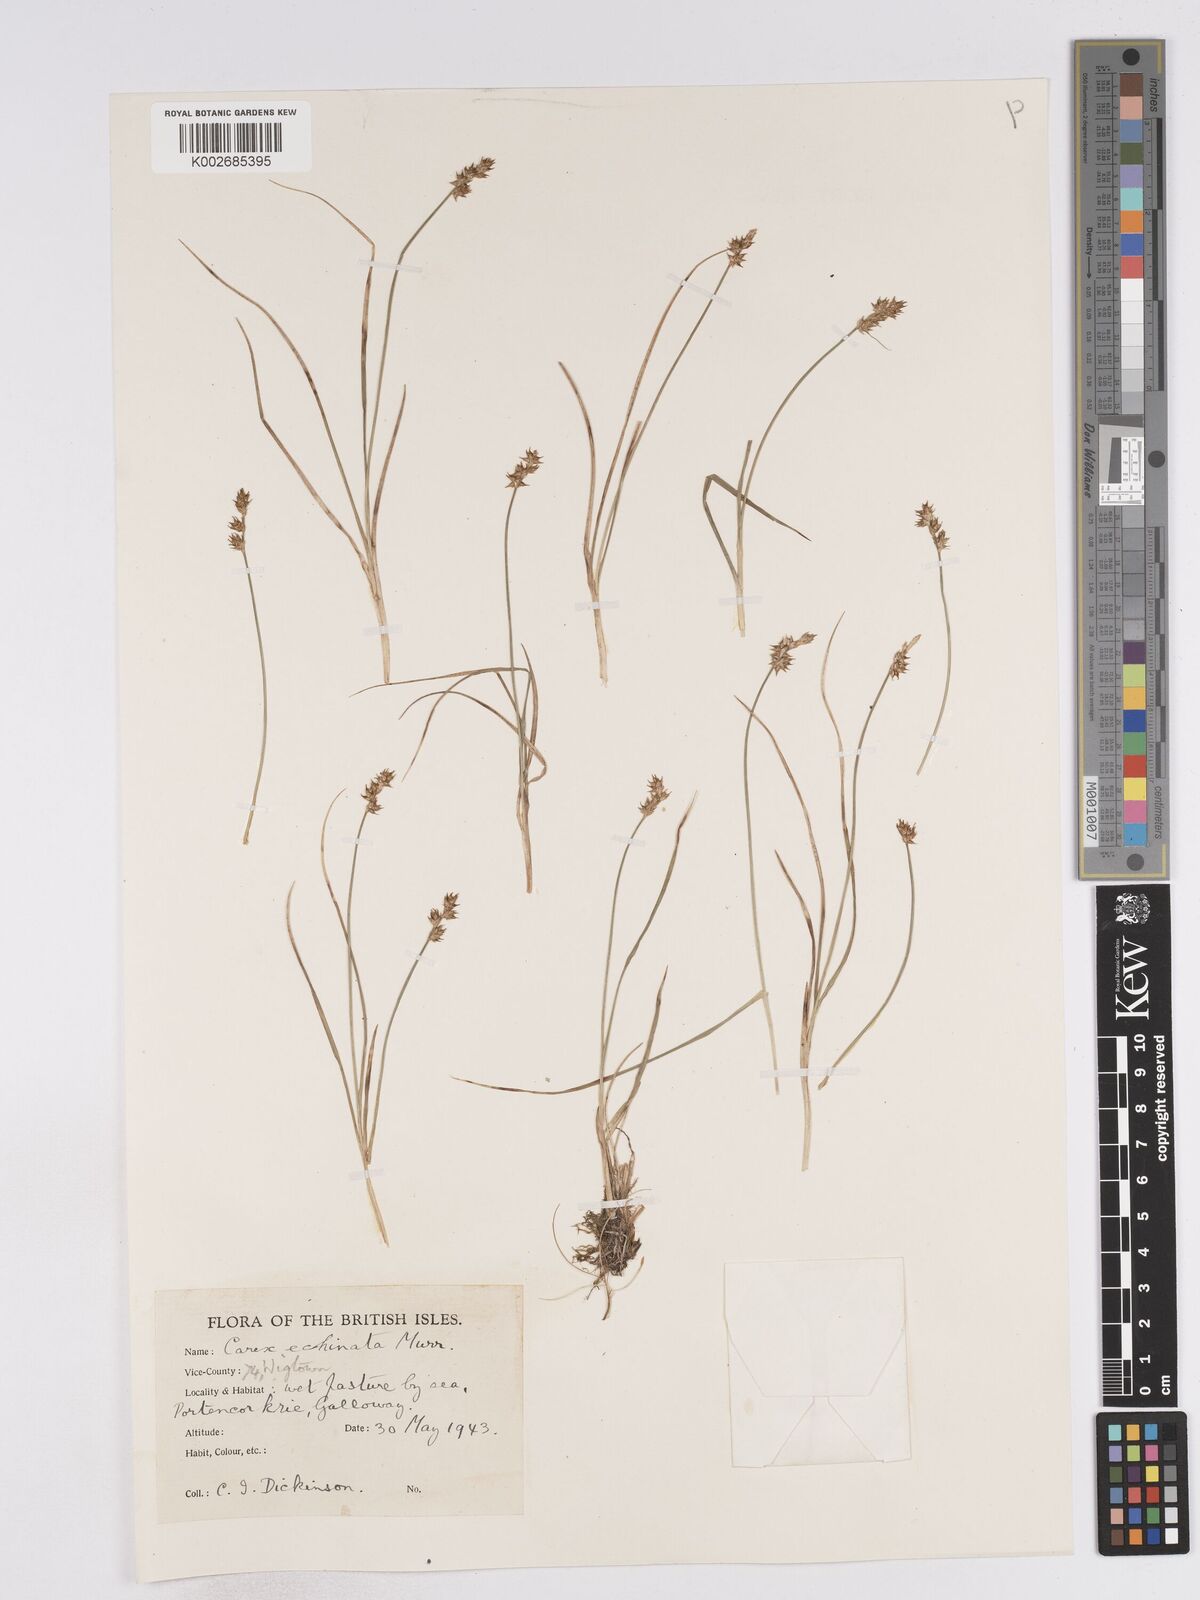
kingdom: Plantae
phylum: Tracheophyta
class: Liliopsida
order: Poales
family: Cyperaceae
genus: Carex
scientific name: Carex echinata
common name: Star sedge
